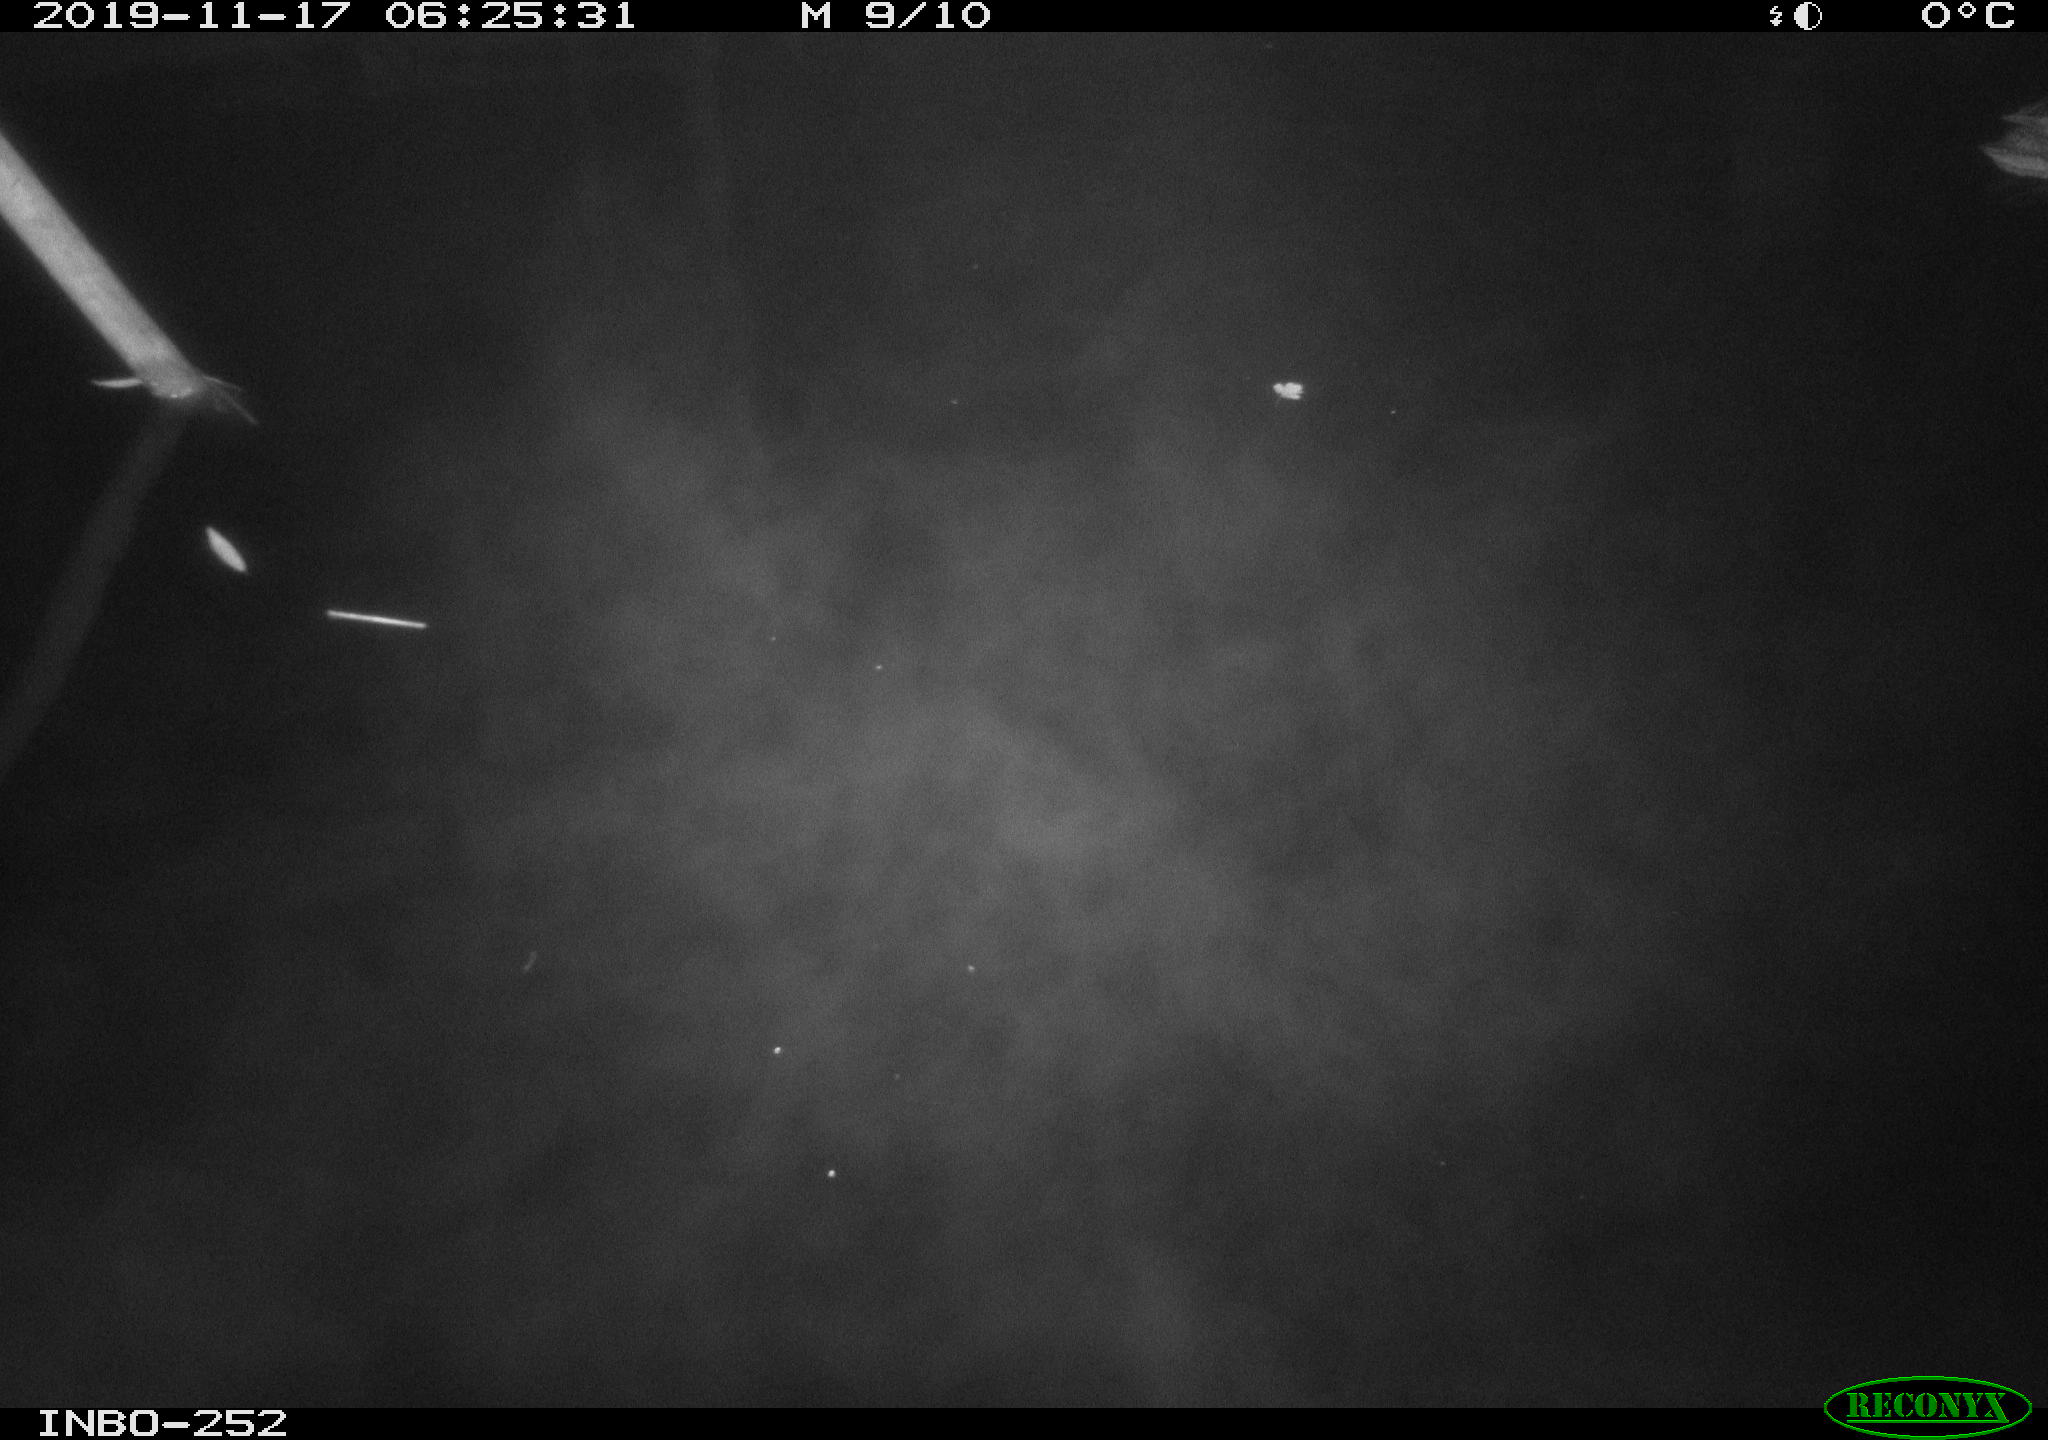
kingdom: Animalia
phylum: Chordata
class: Aves
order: Anseriformes
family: Anatidae
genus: Anas
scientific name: Anas platyrhynchos
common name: Mallard
